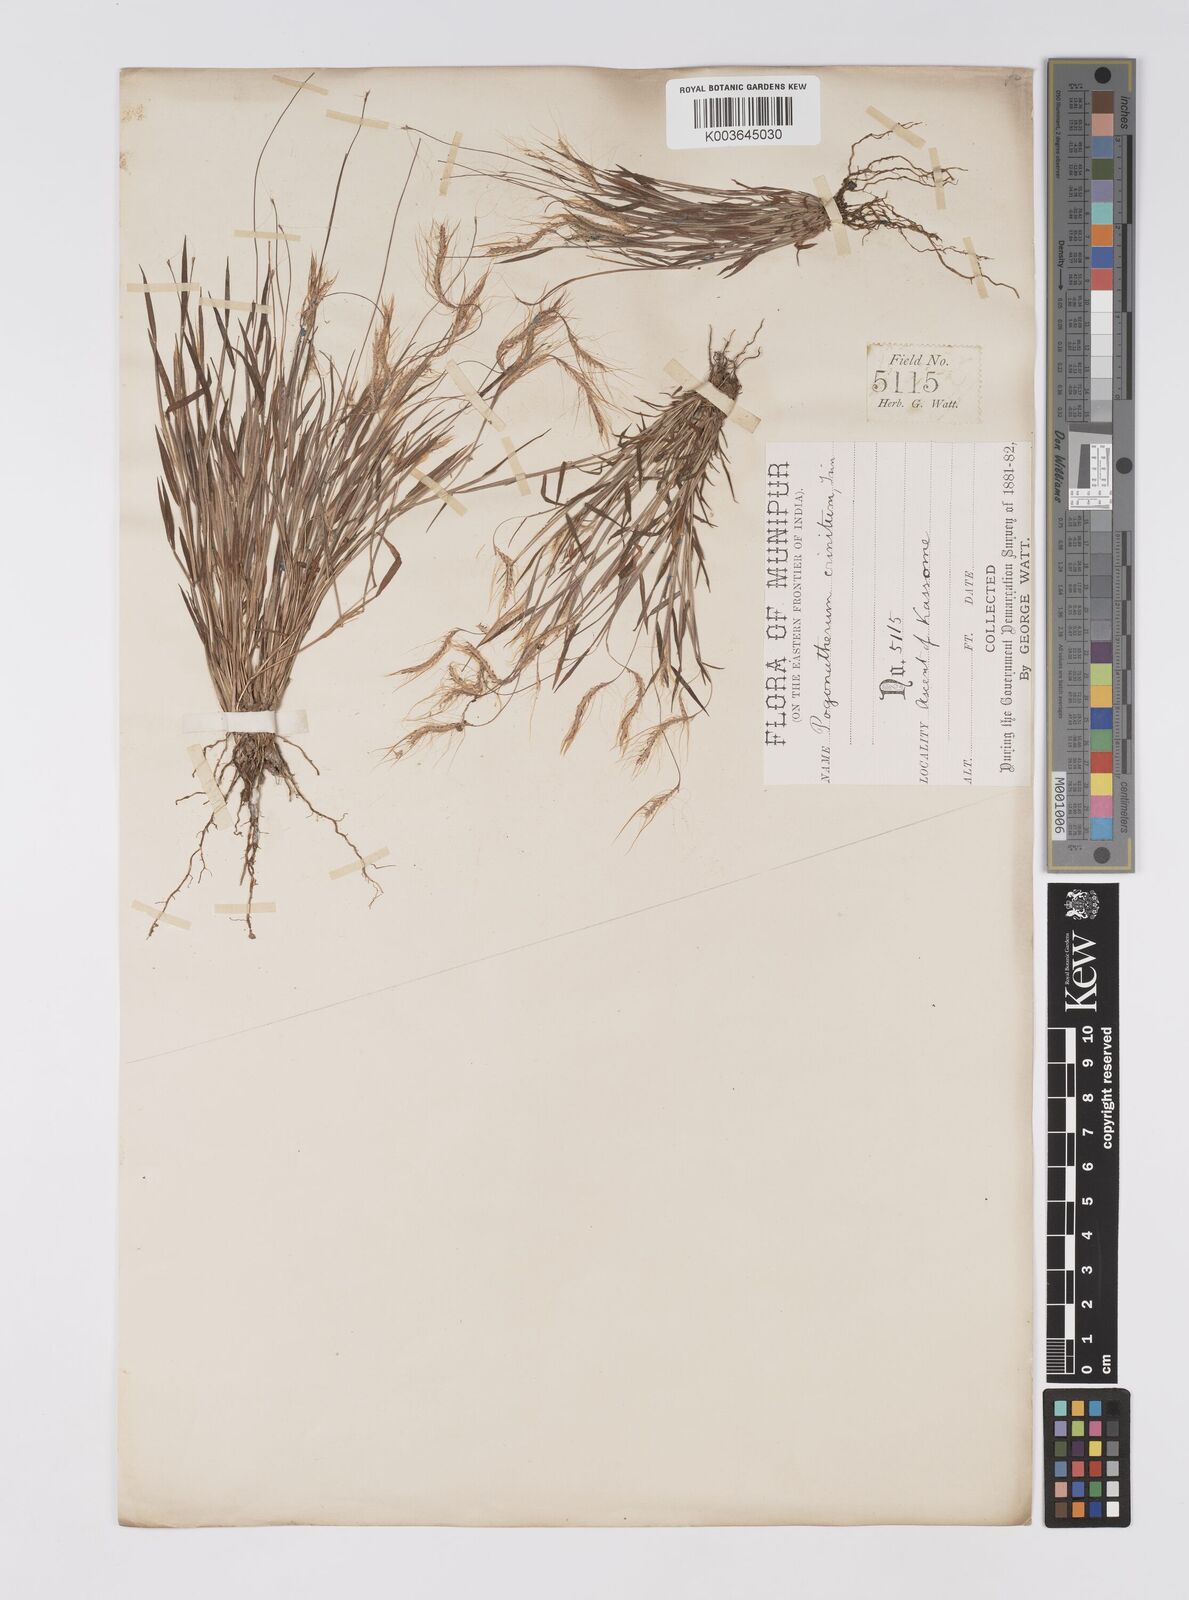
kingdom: Plantae
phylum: Tracheophyta
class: Liliopsida
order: Poales
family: Poaceae
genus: Pogonatherum
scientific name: Pogonatherum crinitum
